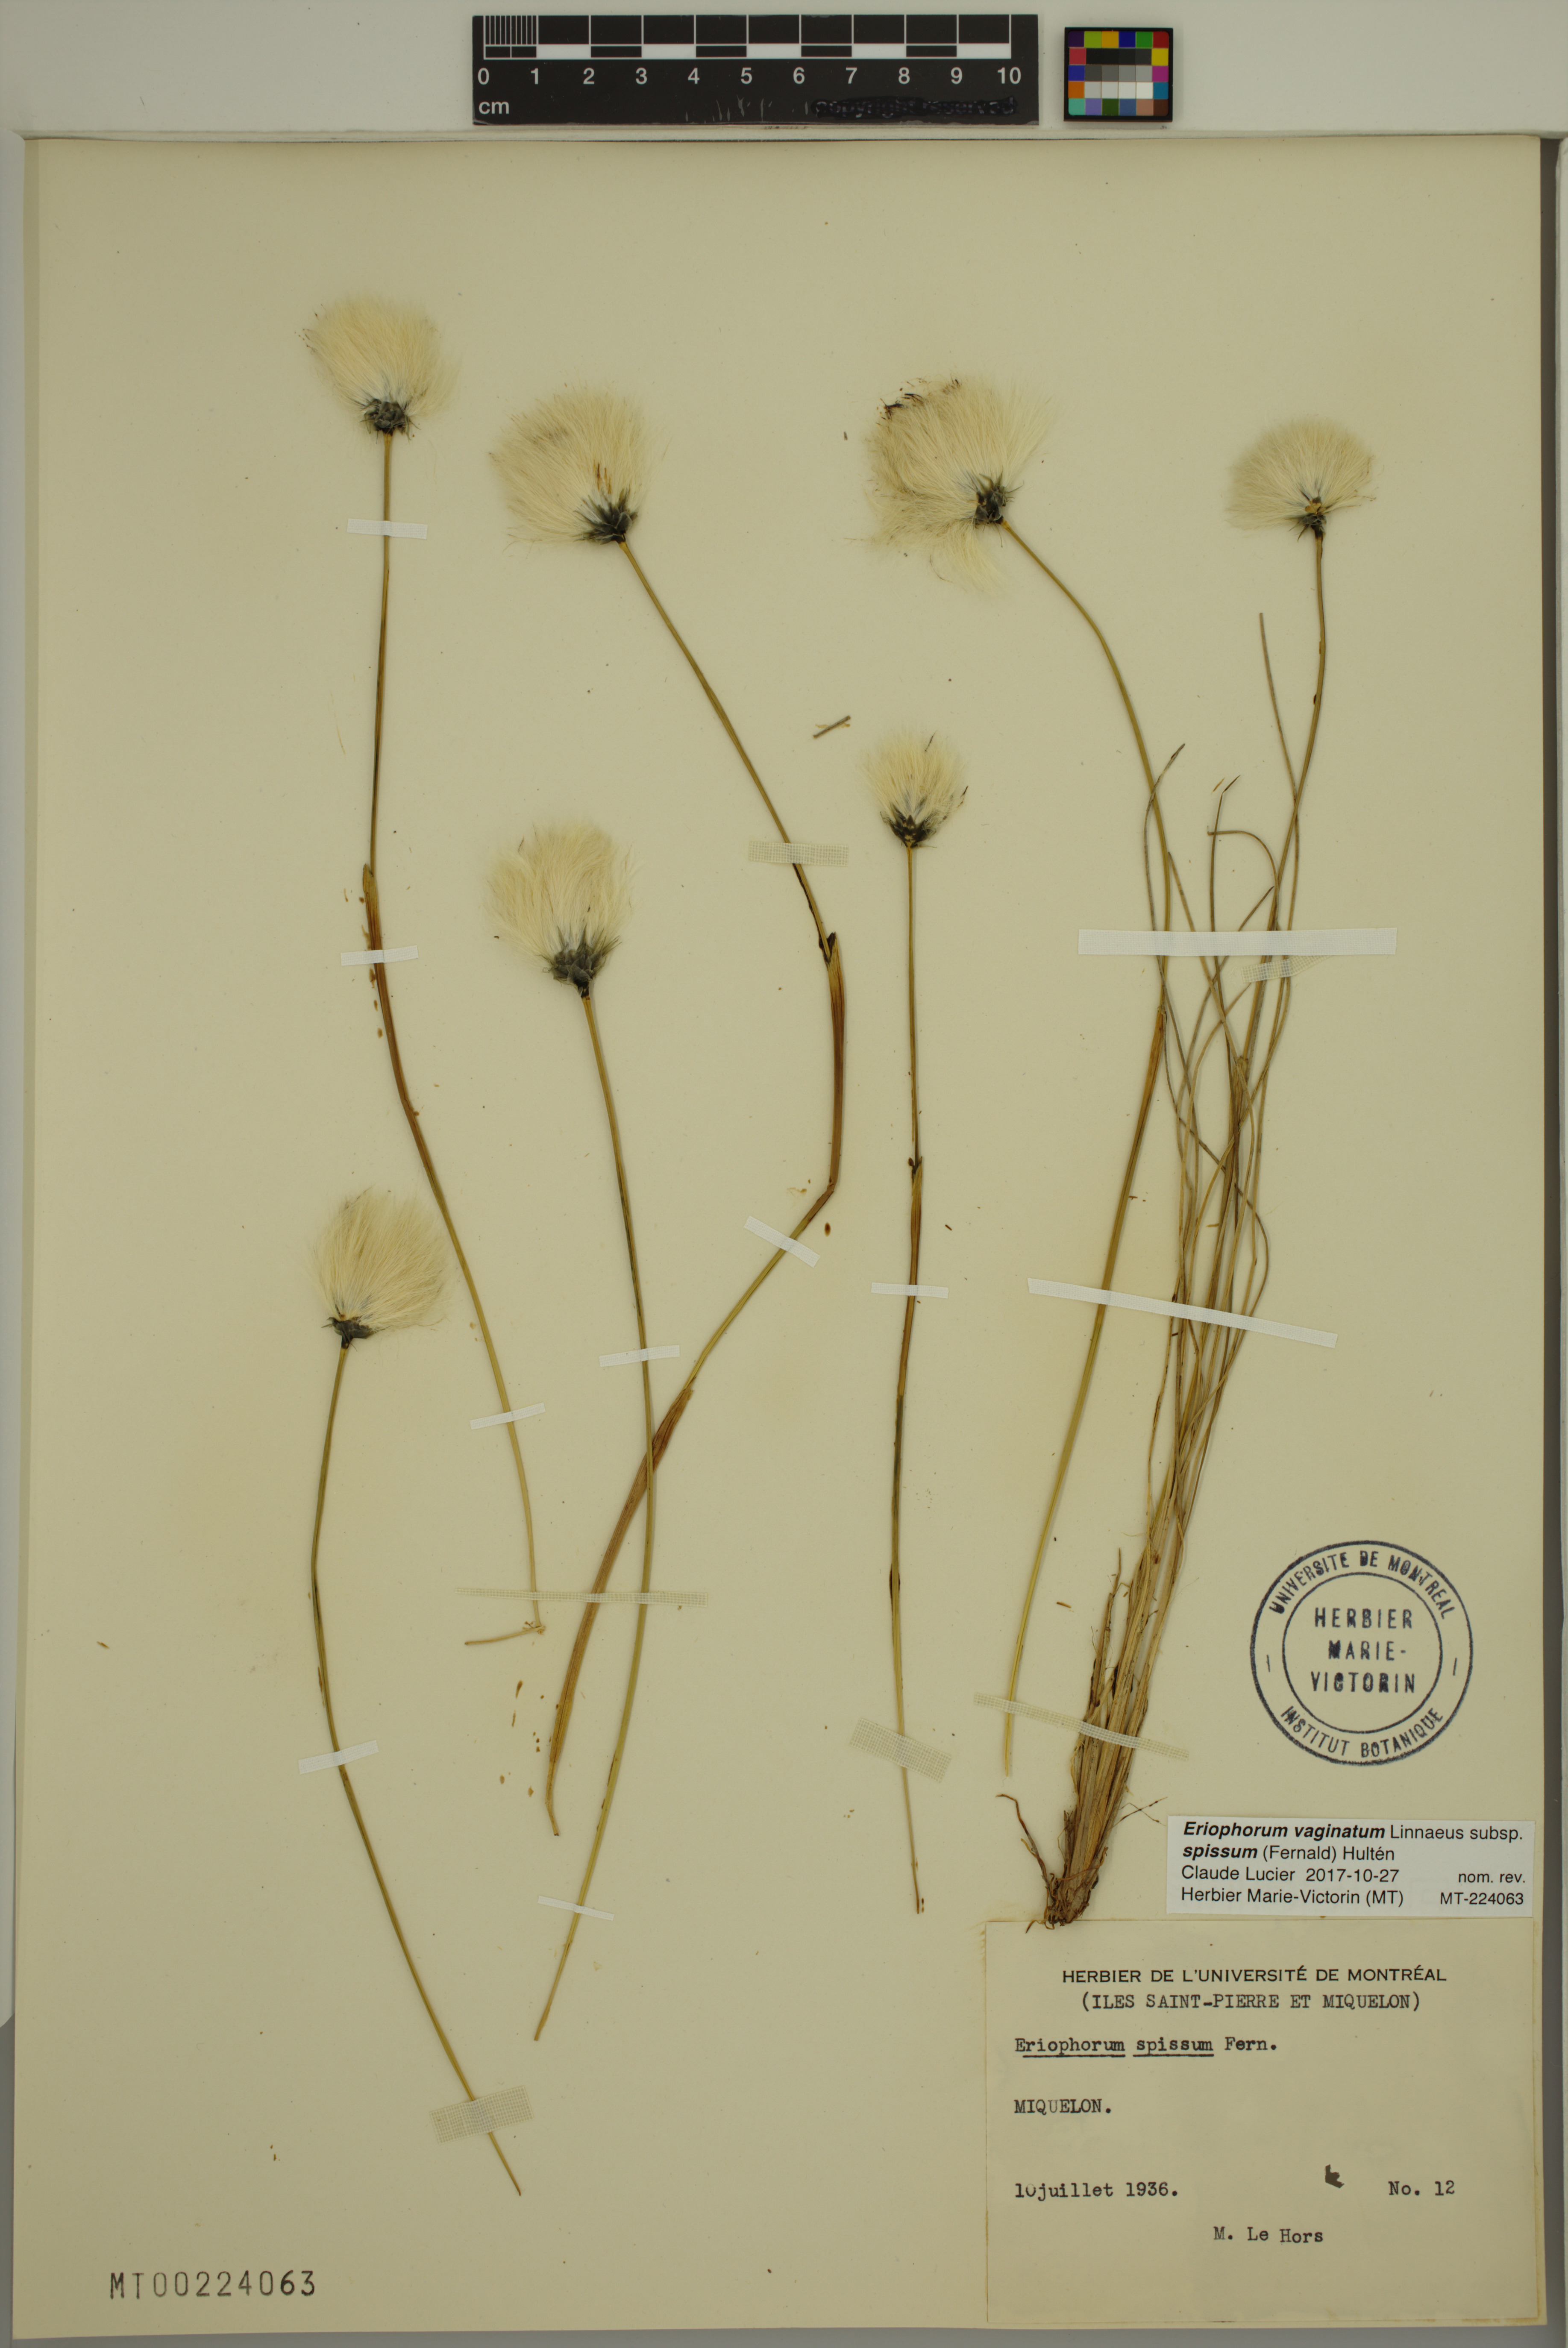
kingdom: Plantae
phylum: Tracheophyta
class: Liliopsida
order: Poales
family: Cyperaceae
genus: Eriophorum
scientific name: Eriophorum vaginatum
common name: Hare's-tail cottongrass
